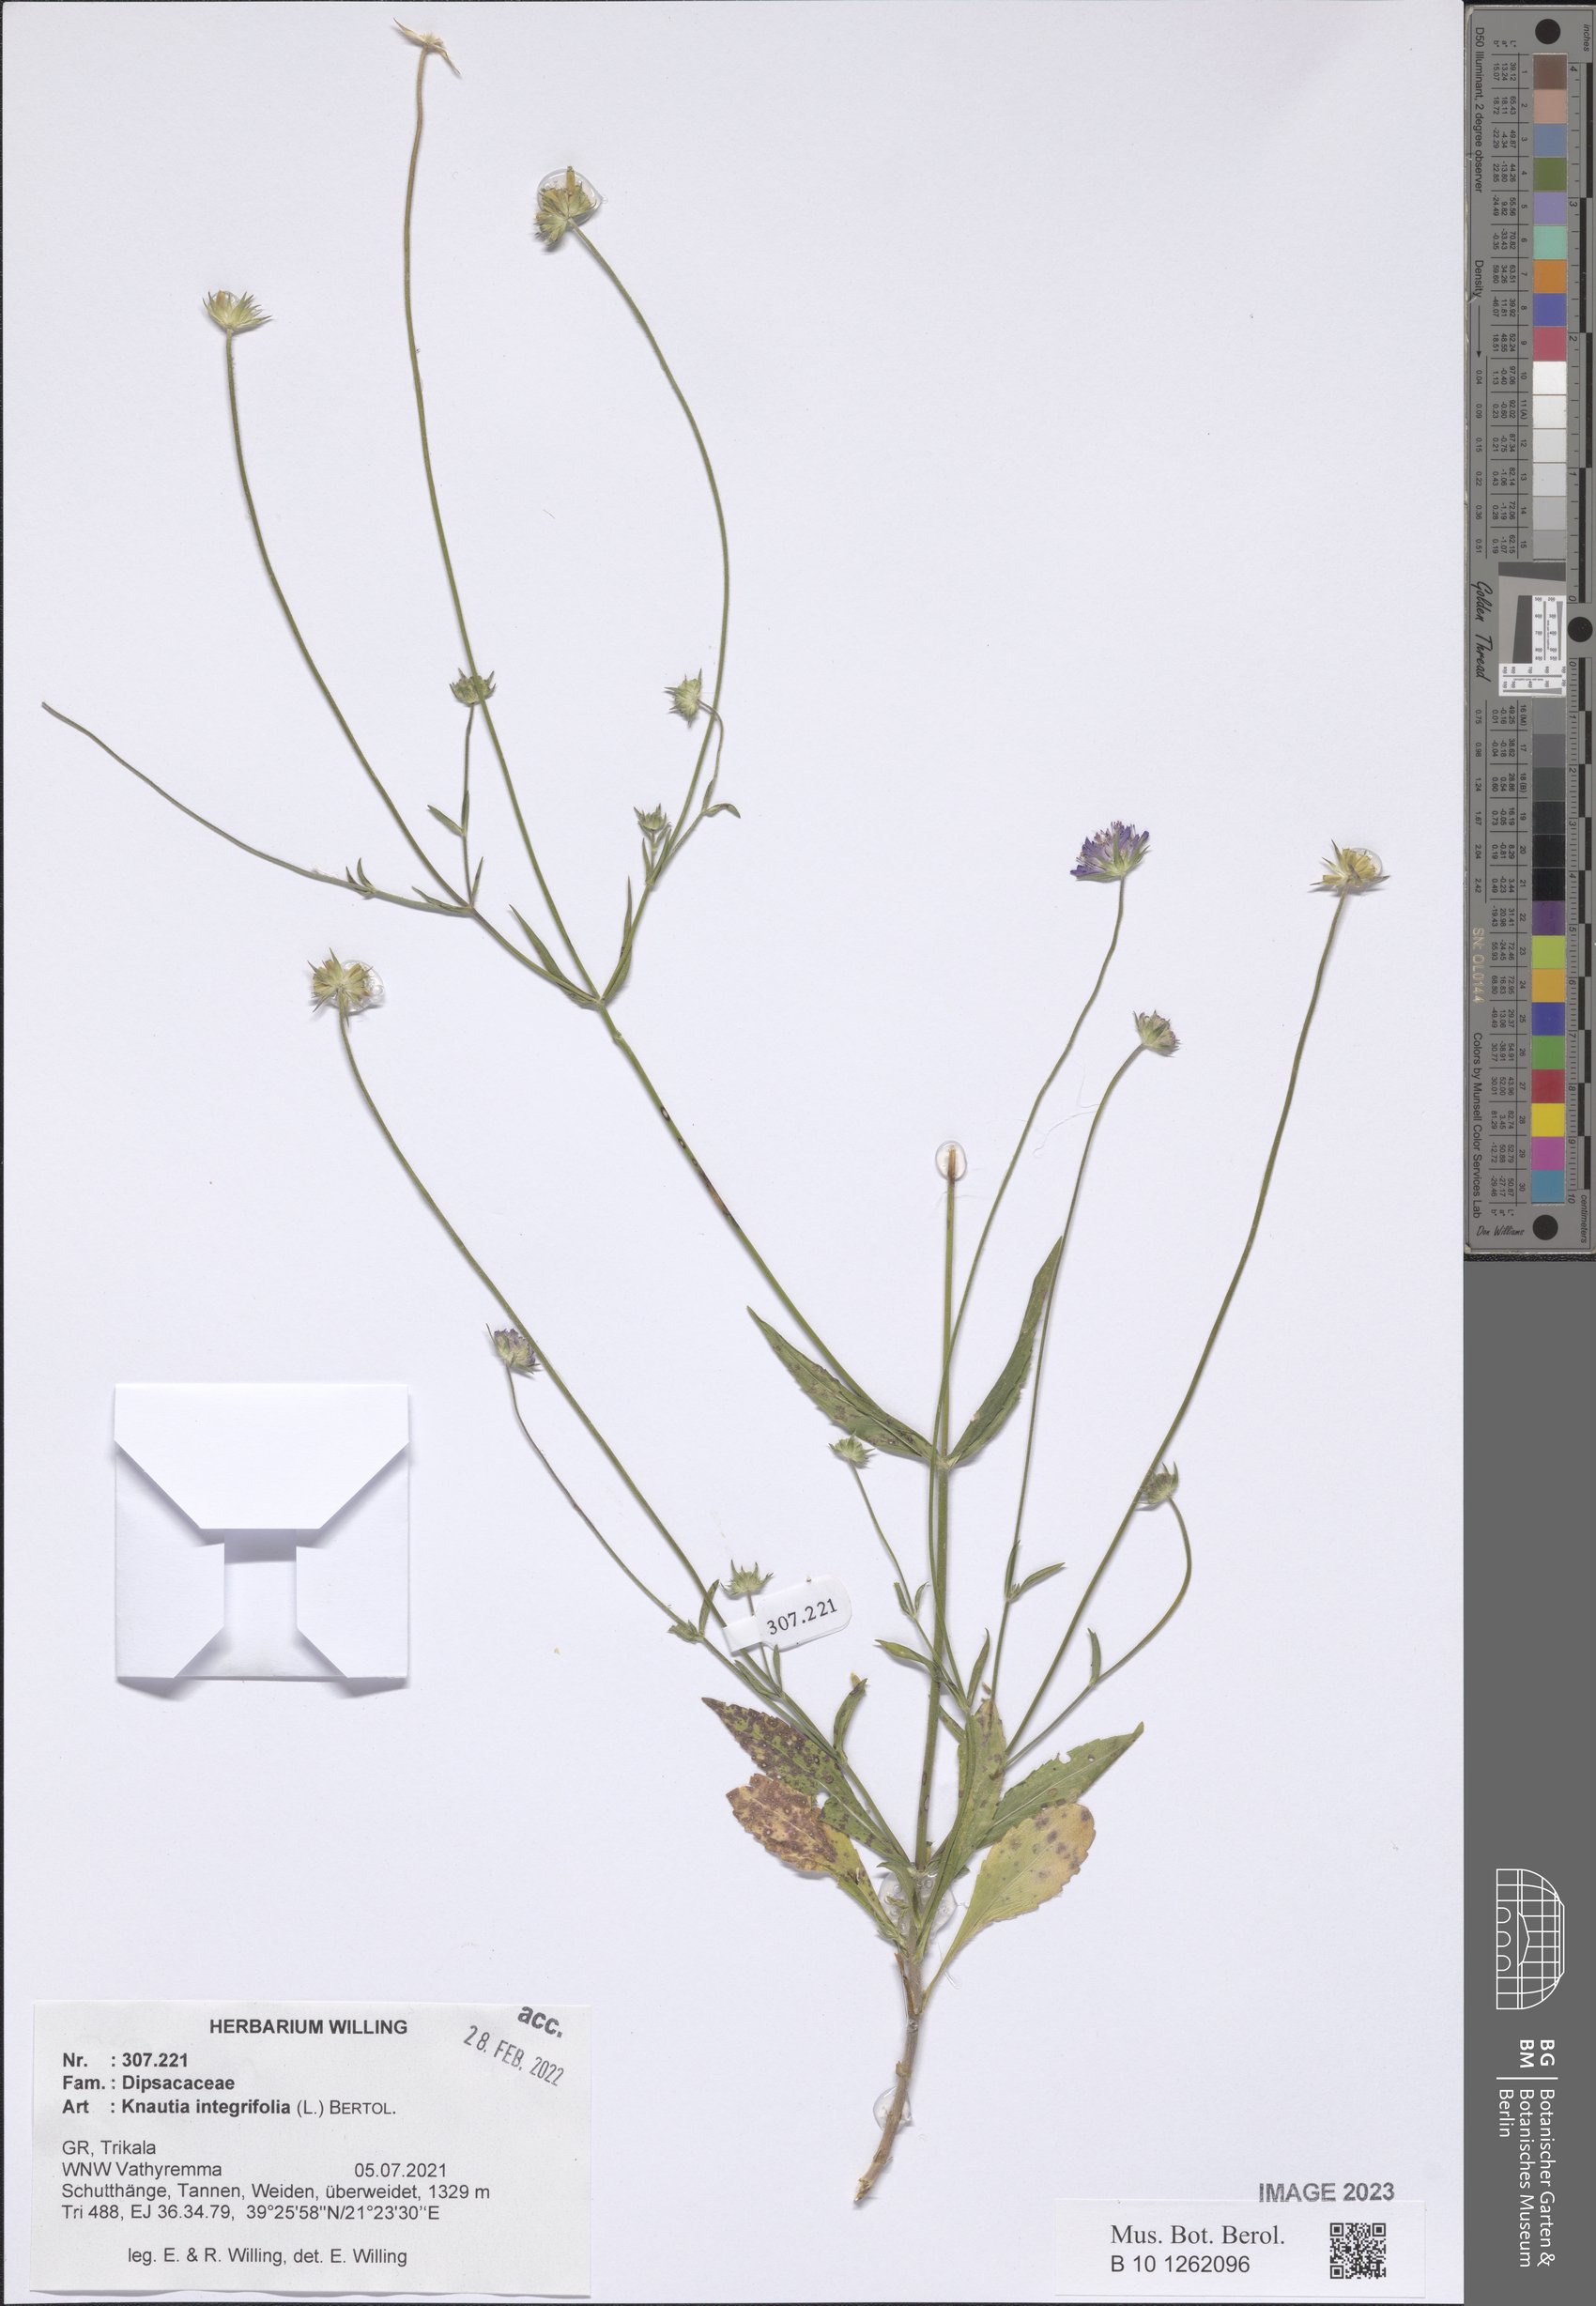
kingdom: Plantae
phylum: Tracheophyta
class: Magnoliopsida
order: Dipsacales
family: Caprifoliaceae
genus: Knautia
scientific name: Knautia integrifolia
